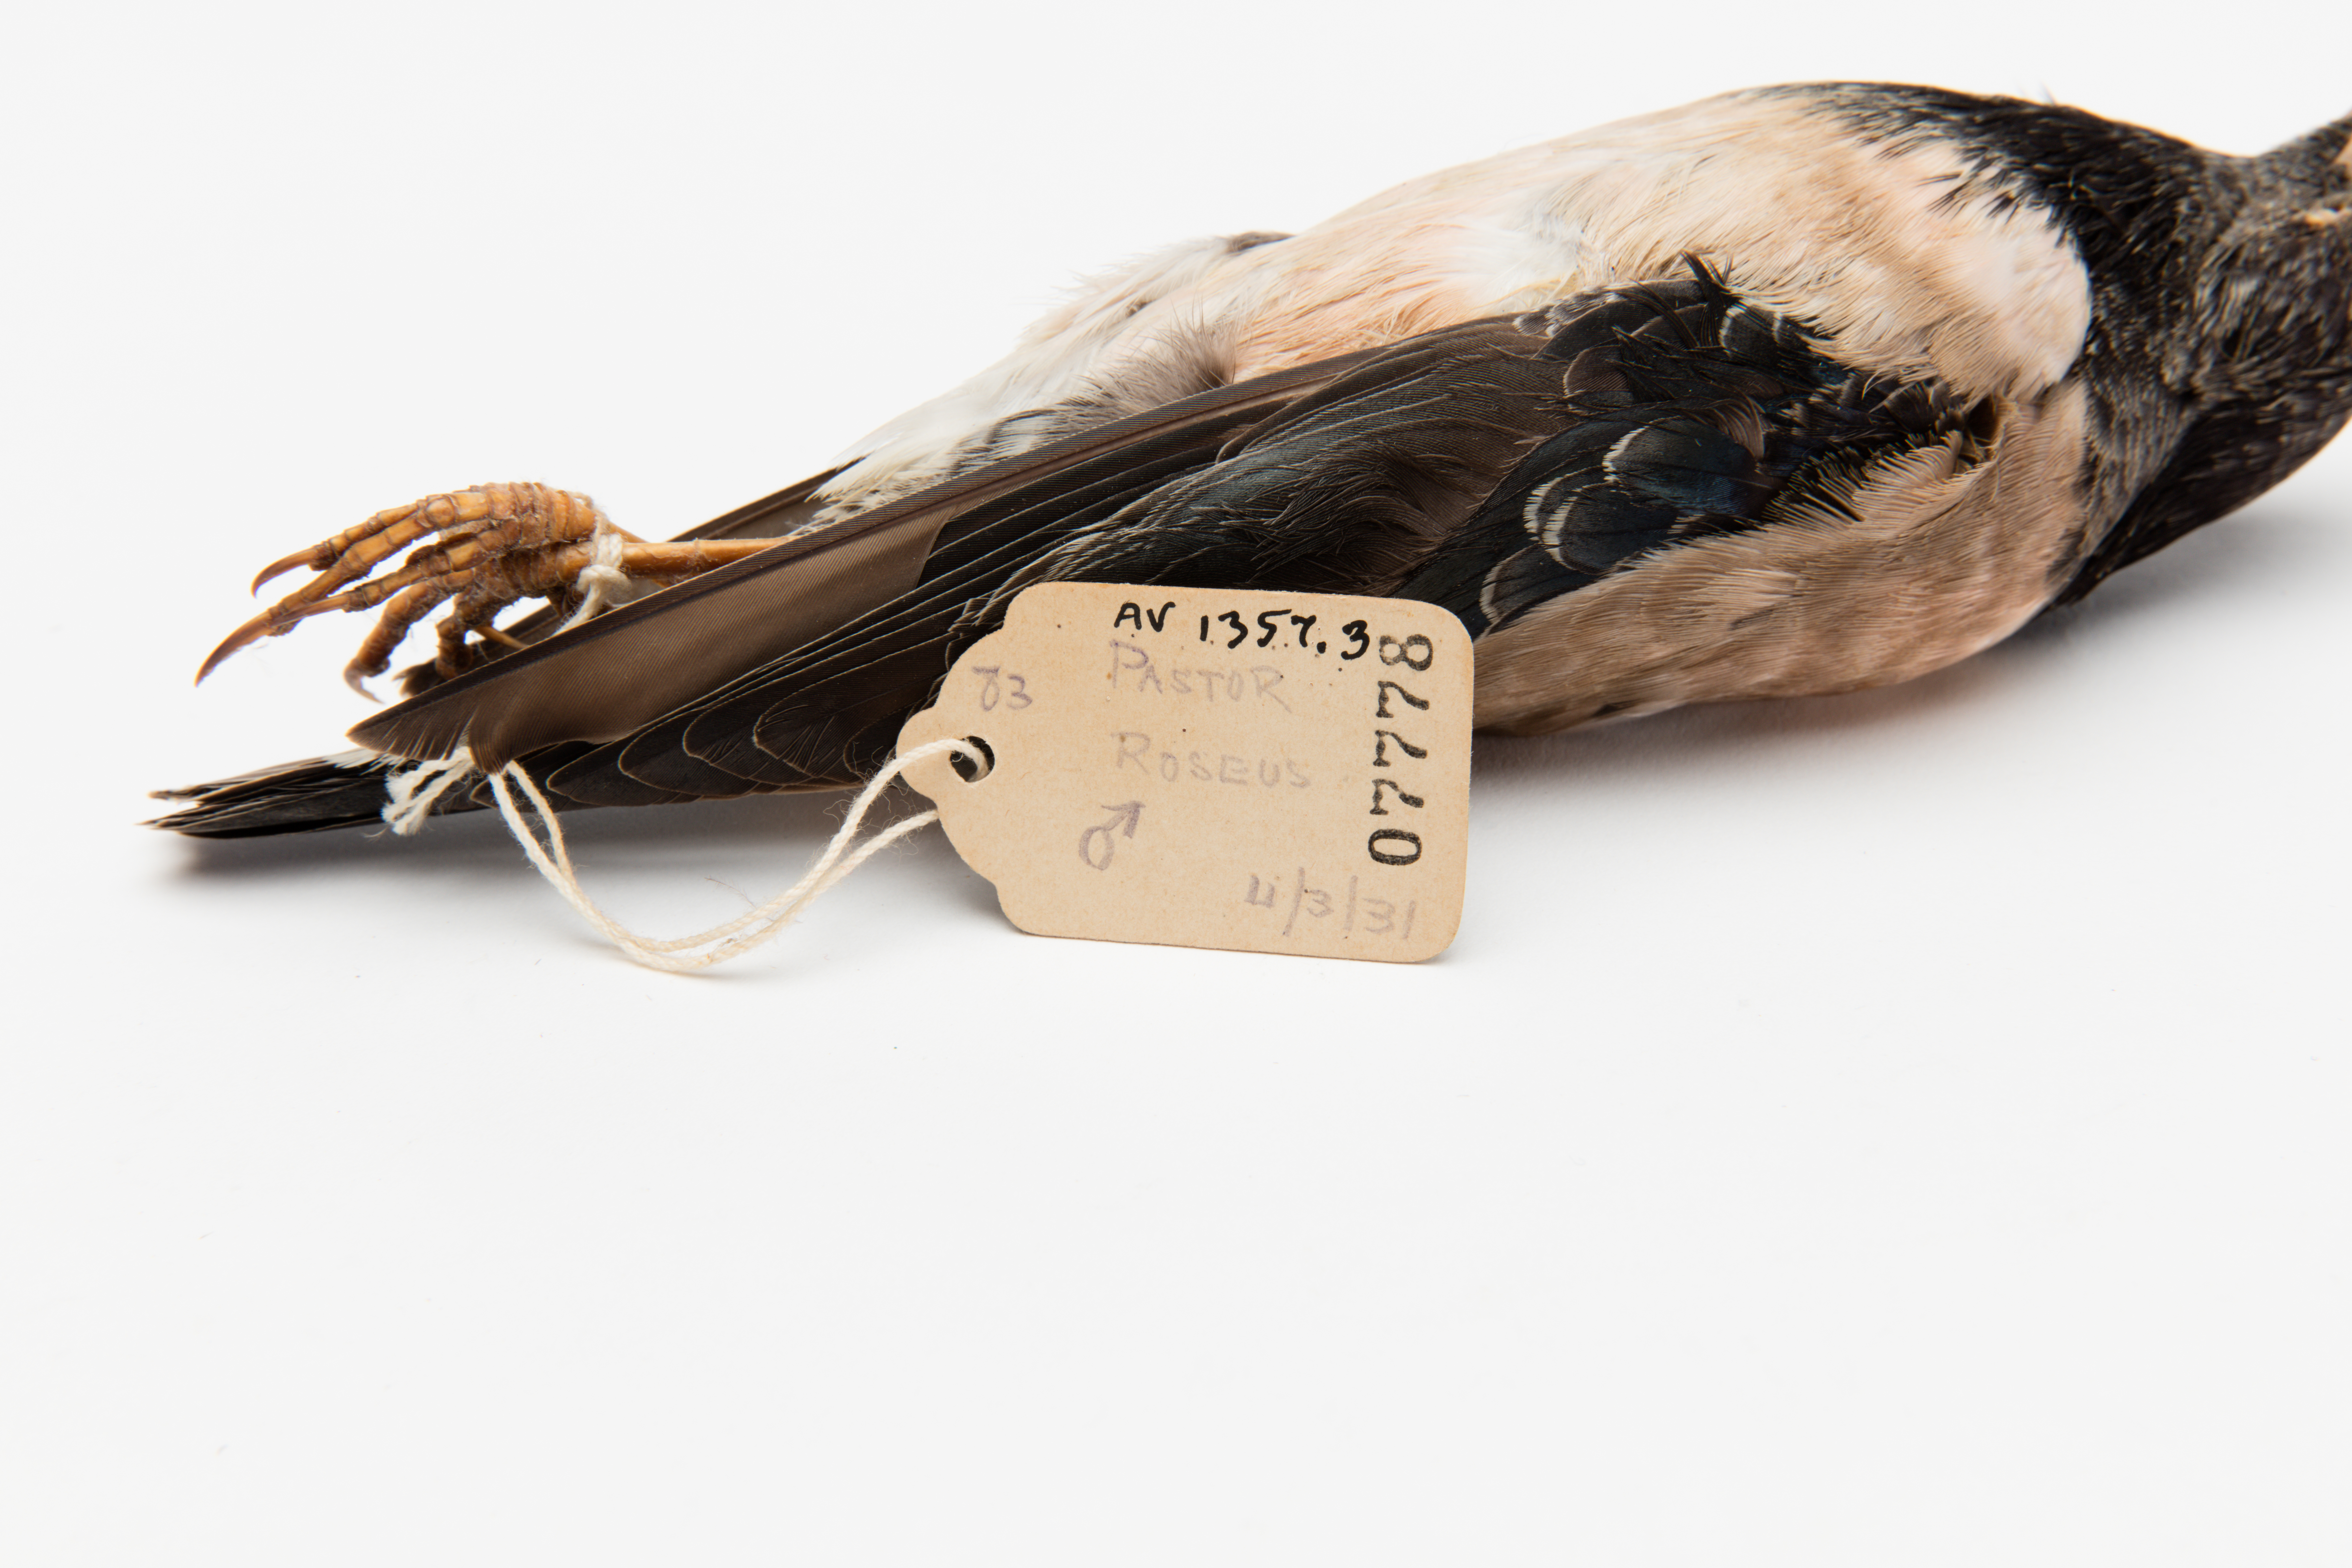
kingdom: Animalia
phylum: Chordata
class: Aves
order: Passeriformes
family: Sturnidae
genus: Pastor
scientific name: Pastor roseus
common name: Rosy starling
